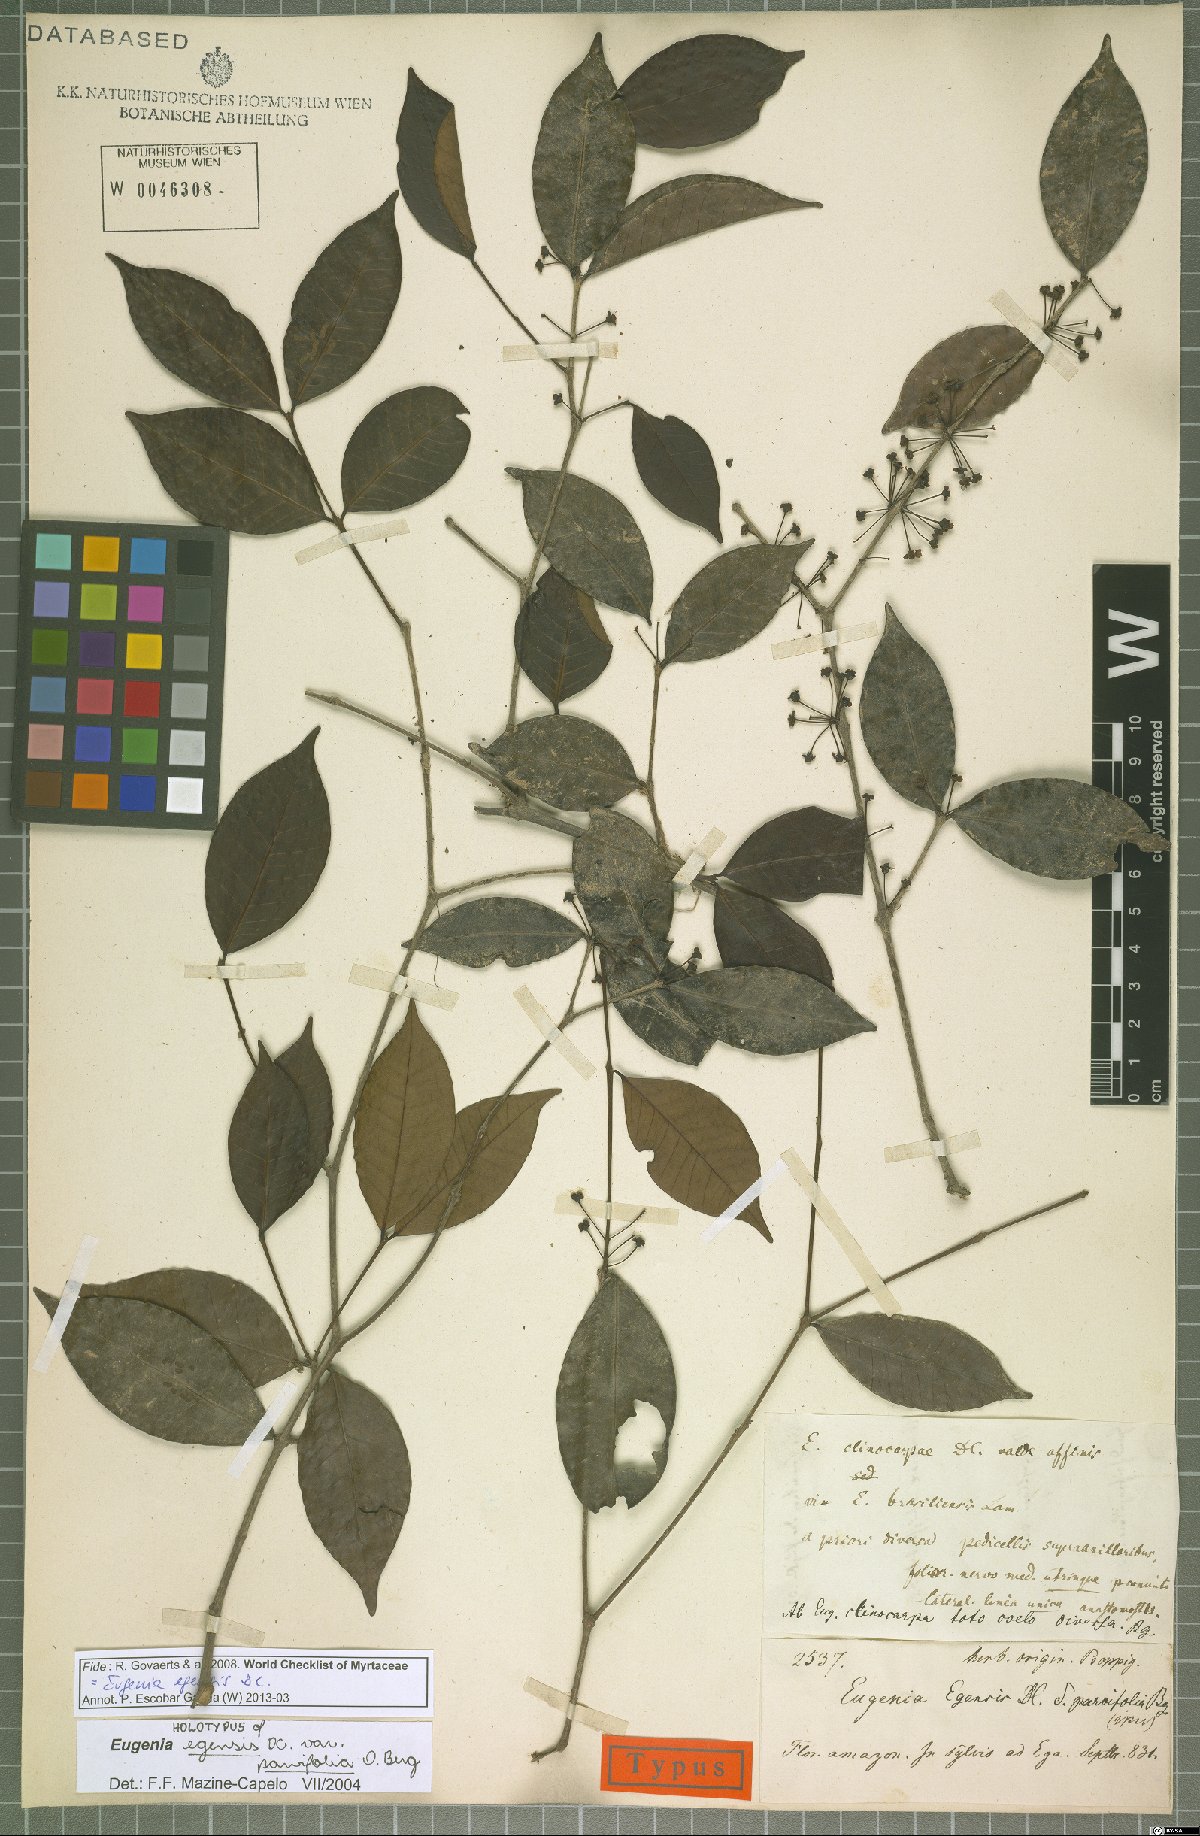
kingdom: Plantae
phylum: Tracheophyta
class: Magnoliopsida
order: Myrtales
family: Myrtaceae
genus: Eugenia
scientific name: Eugenia egensis
